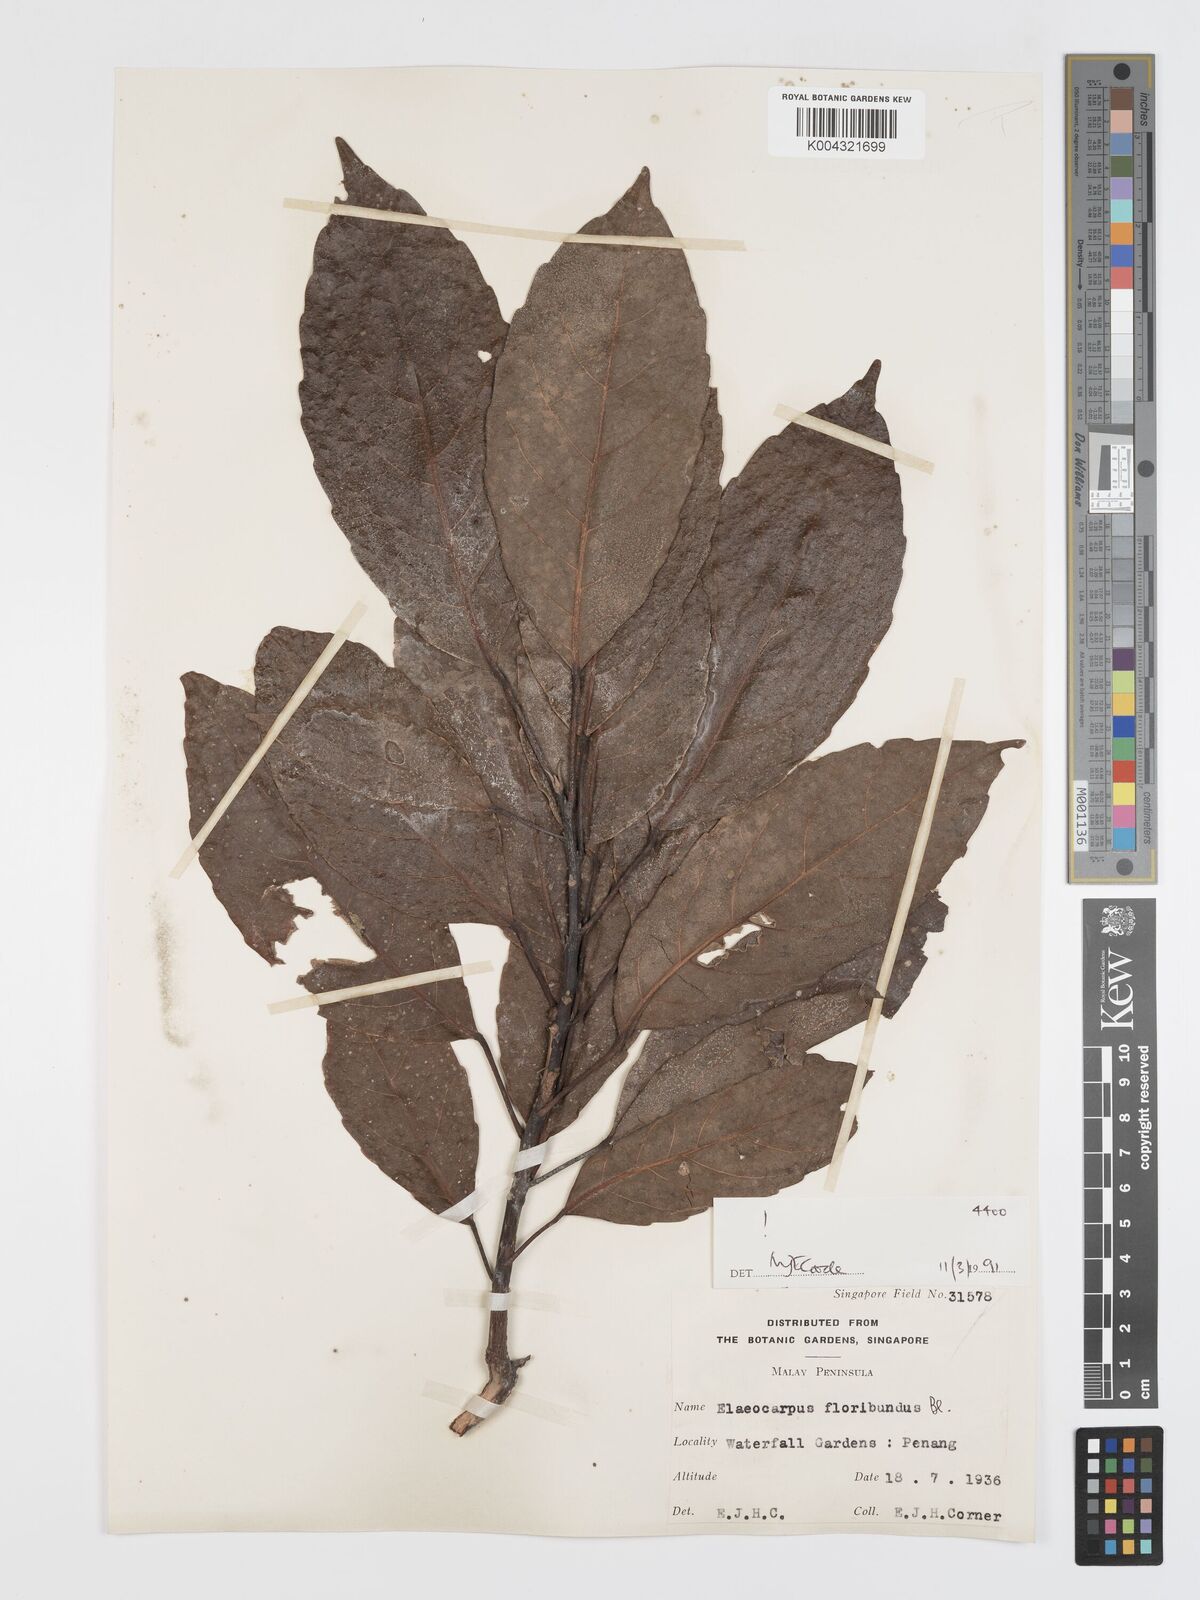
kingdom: Plantae
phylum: Tracheophyta
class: Magnoliopsida
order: Oxalidales
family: Elaeocarpaceae
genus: Elaeocarpus
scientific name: Elaeocarpus floribundus
